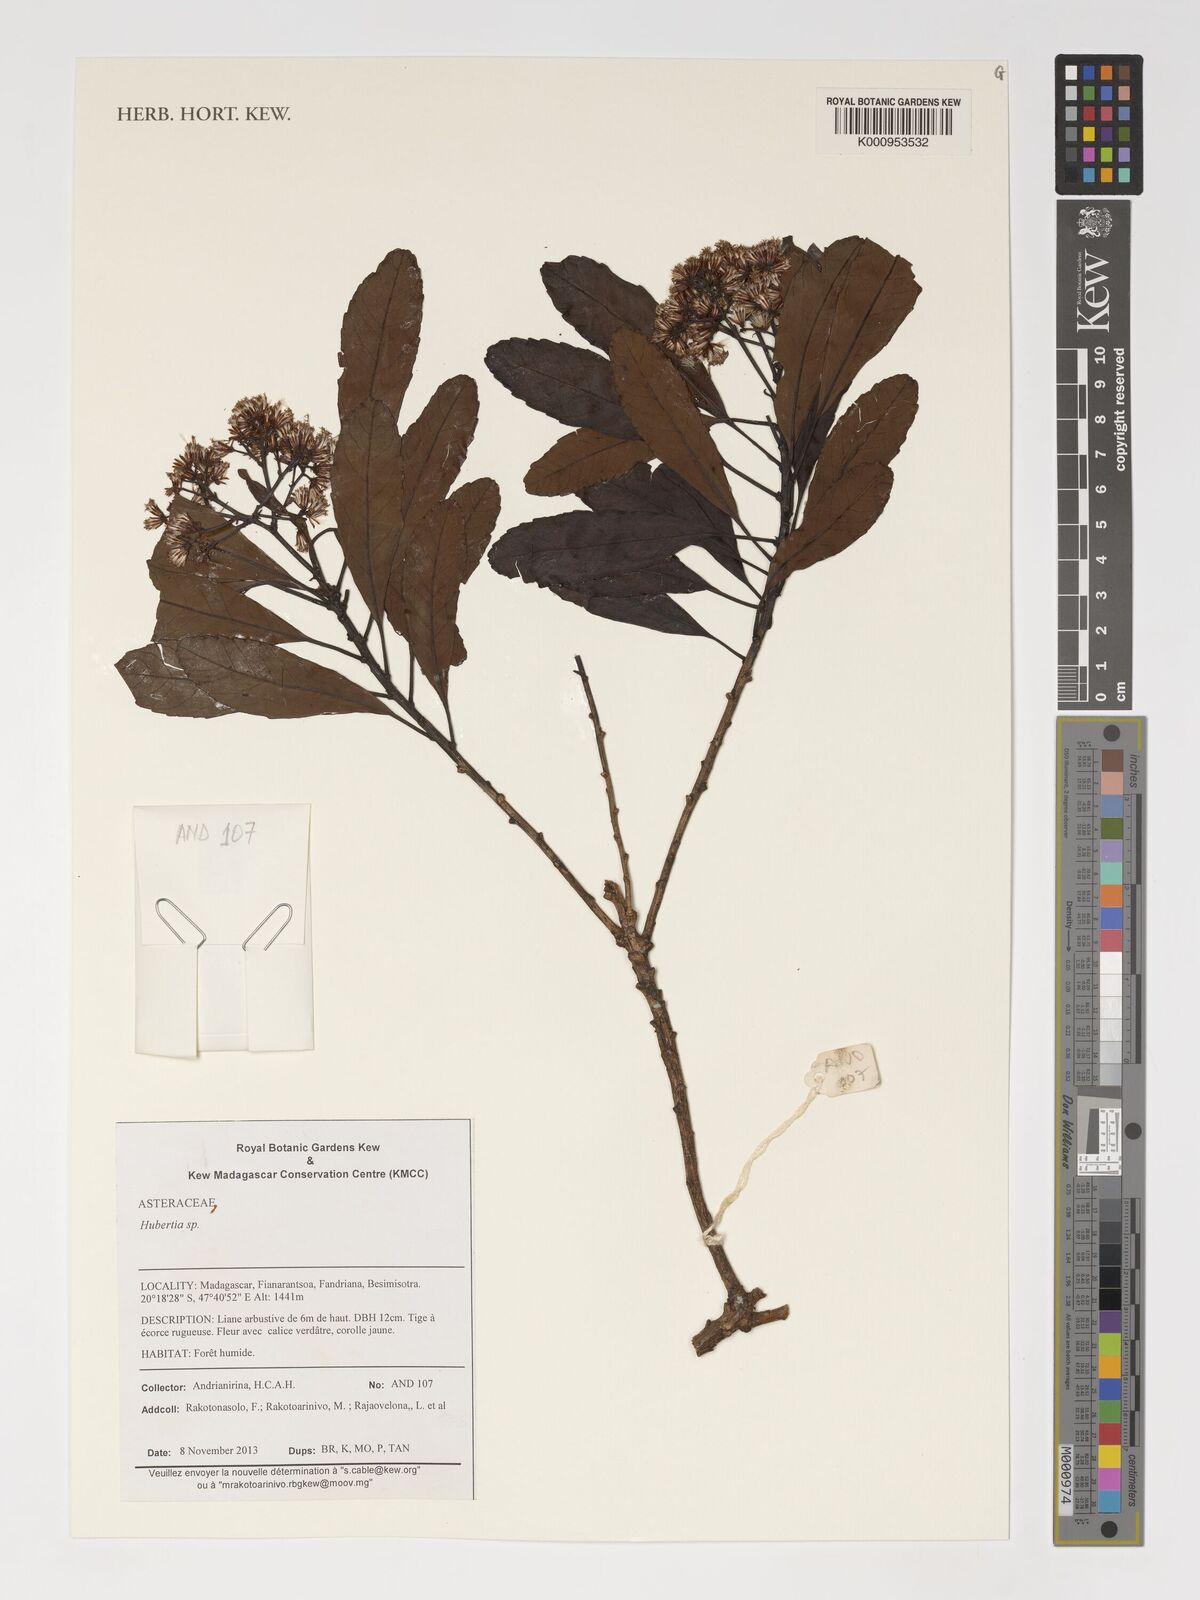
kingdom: Plantae
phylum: Tracheophyta
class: Magnoliopsida
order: Asterales
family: Asteraceae
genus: Hubertia
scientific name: Hubertia
